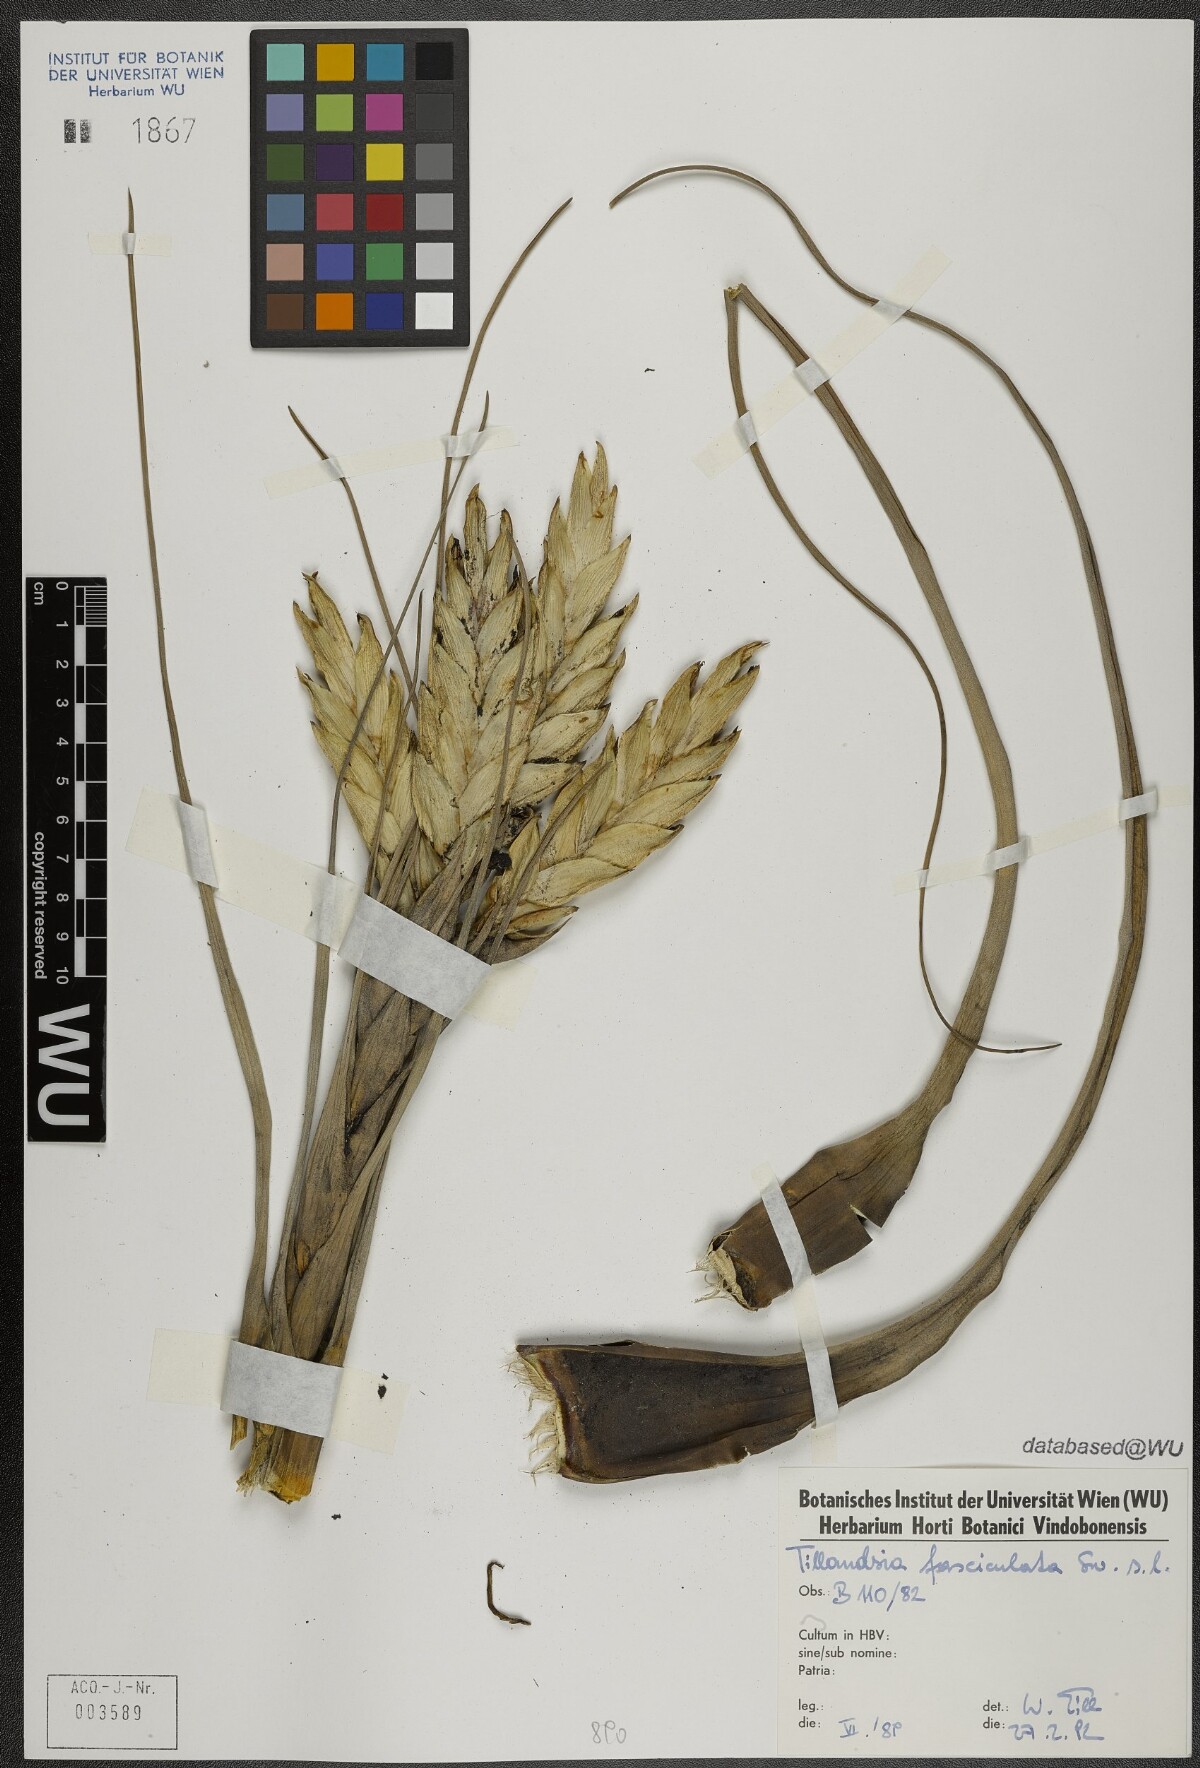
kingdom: Plantae
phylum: Tracheophyta
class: Liliopsida
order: Poales
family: Bromeliaceae
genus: Tillandsia
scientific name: Tillandsia fasciculata
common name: Giant airplant
